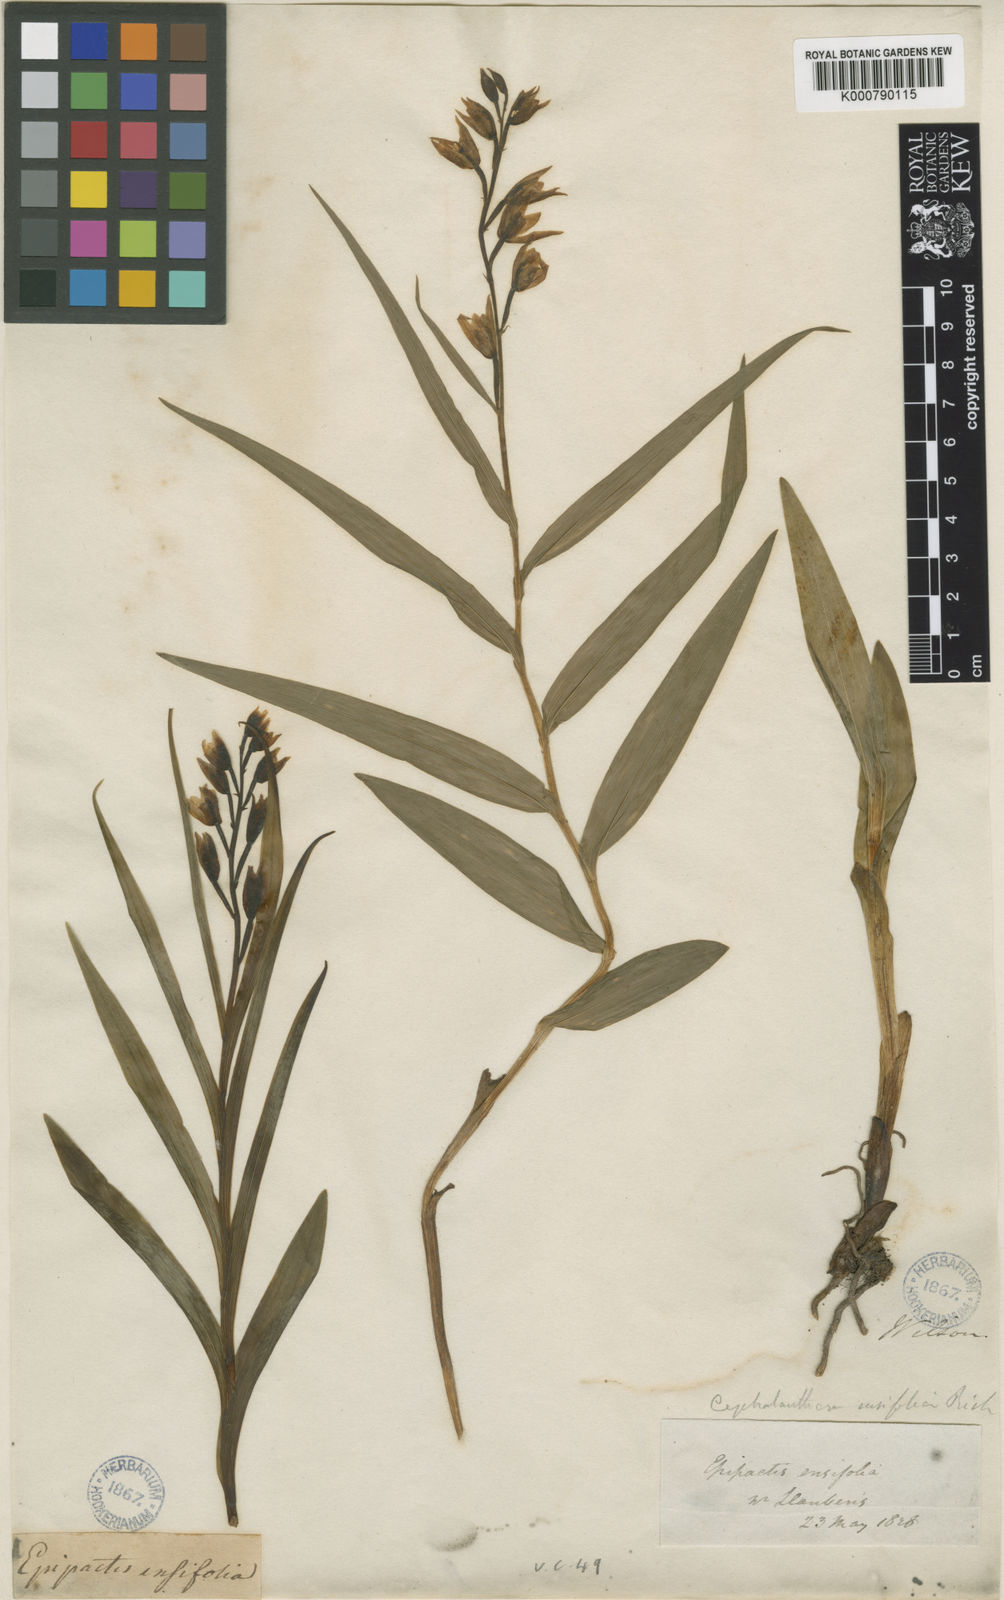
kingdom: Plantae
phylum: Tracheophyta
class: Liliopsida
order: Asparagales
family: Orchidaceae
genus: Cephalanthera
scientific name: Cephalanthera longifolia
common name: Narrow-leaved helleborine
